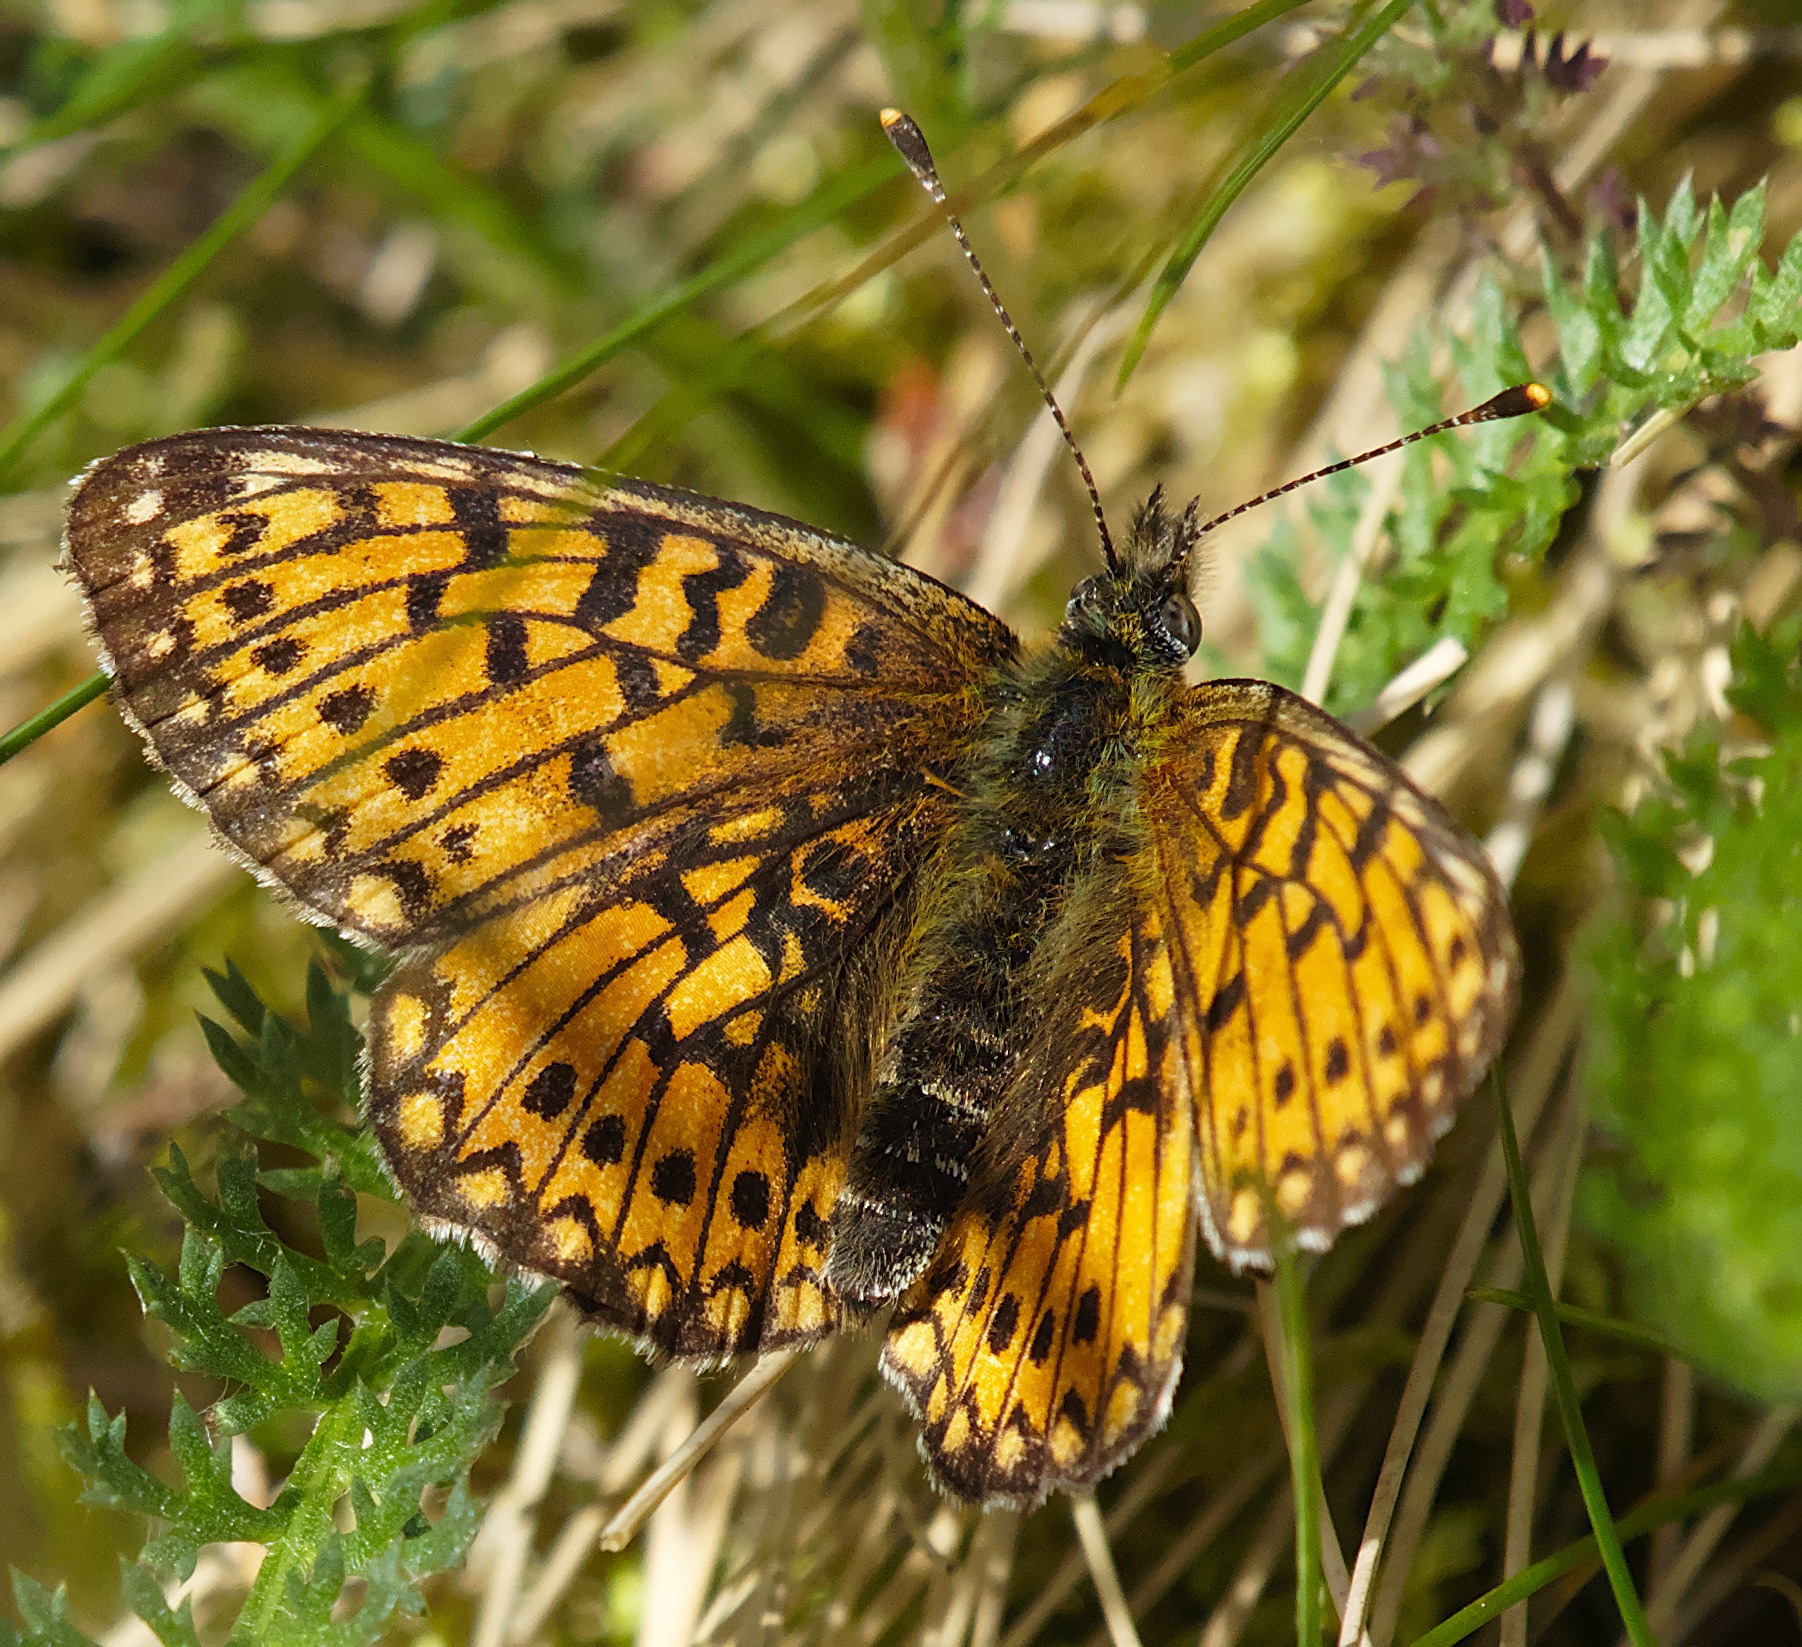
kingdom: Animalia
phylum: Arthropoda
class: Insecta
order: Lepidoptera
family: Nymphalidae
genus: Boloria
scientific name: Boloria selene
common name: Brunlig perlemorsommerfugl
